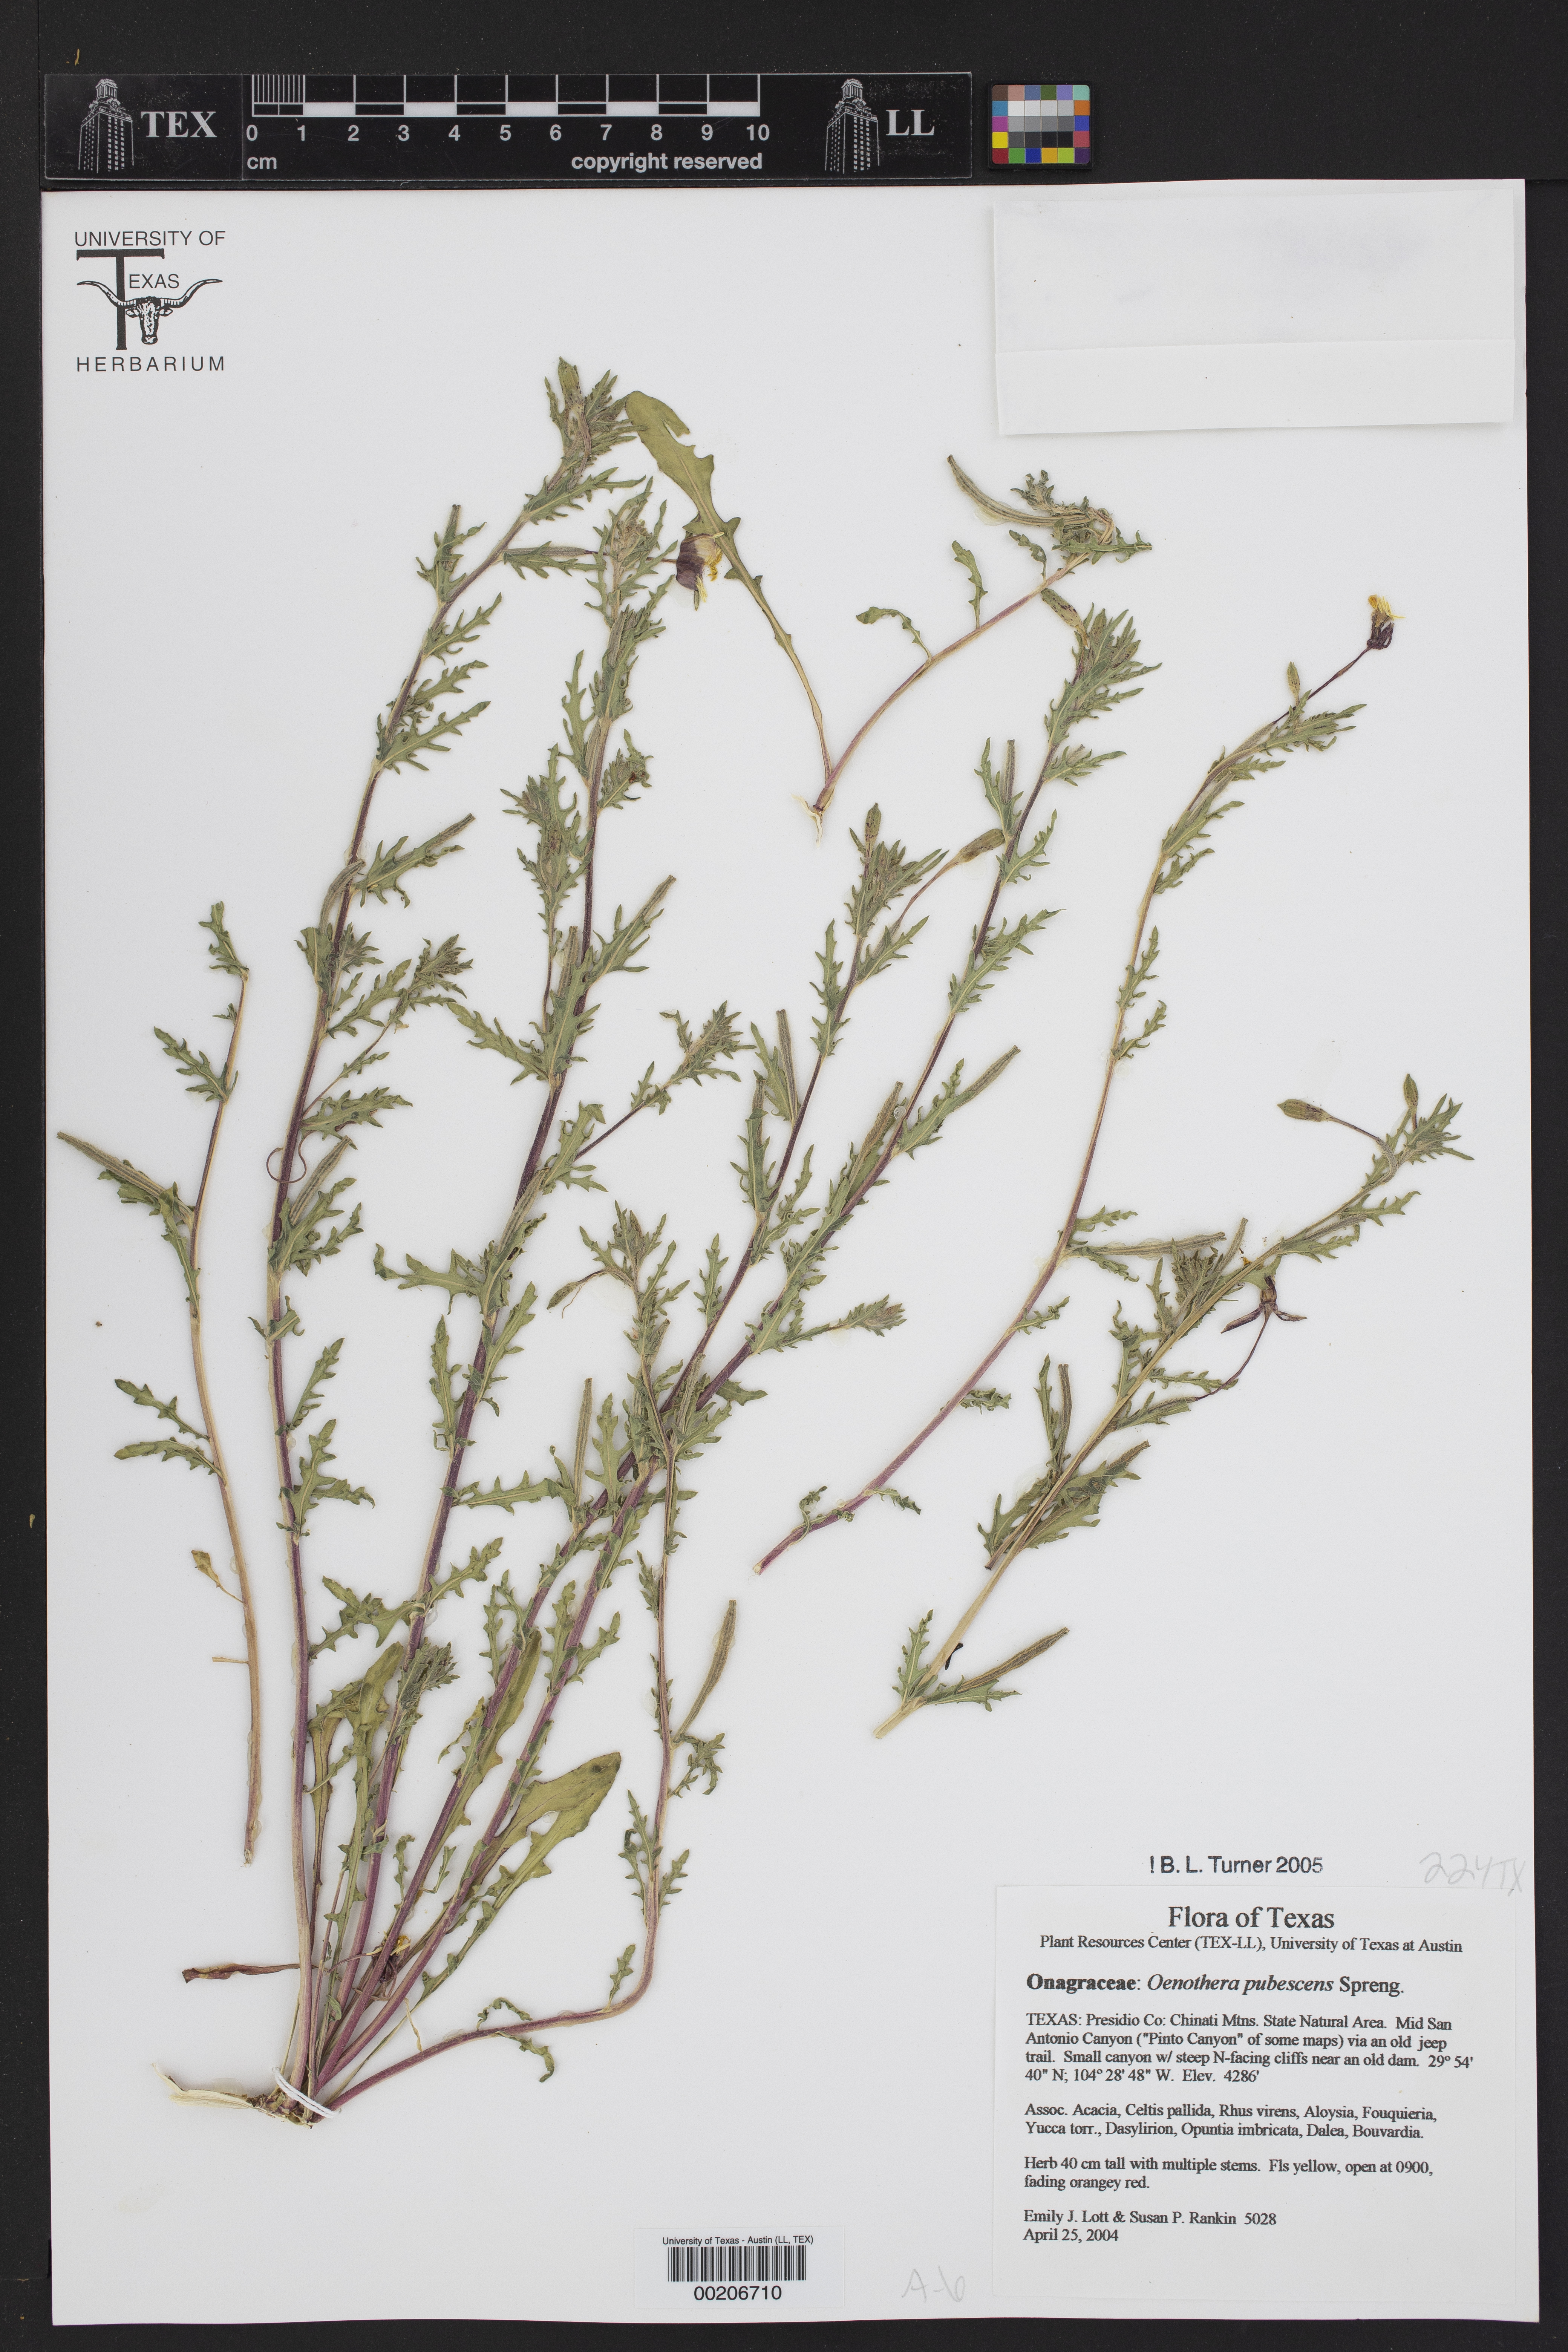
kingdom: Plantae
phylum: Tracheophyta
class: Magnoliopsida
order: Myrtales
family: Onagraceae
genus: Oenothera
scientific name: Oenothera pubescens
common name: South american evening-primrose
